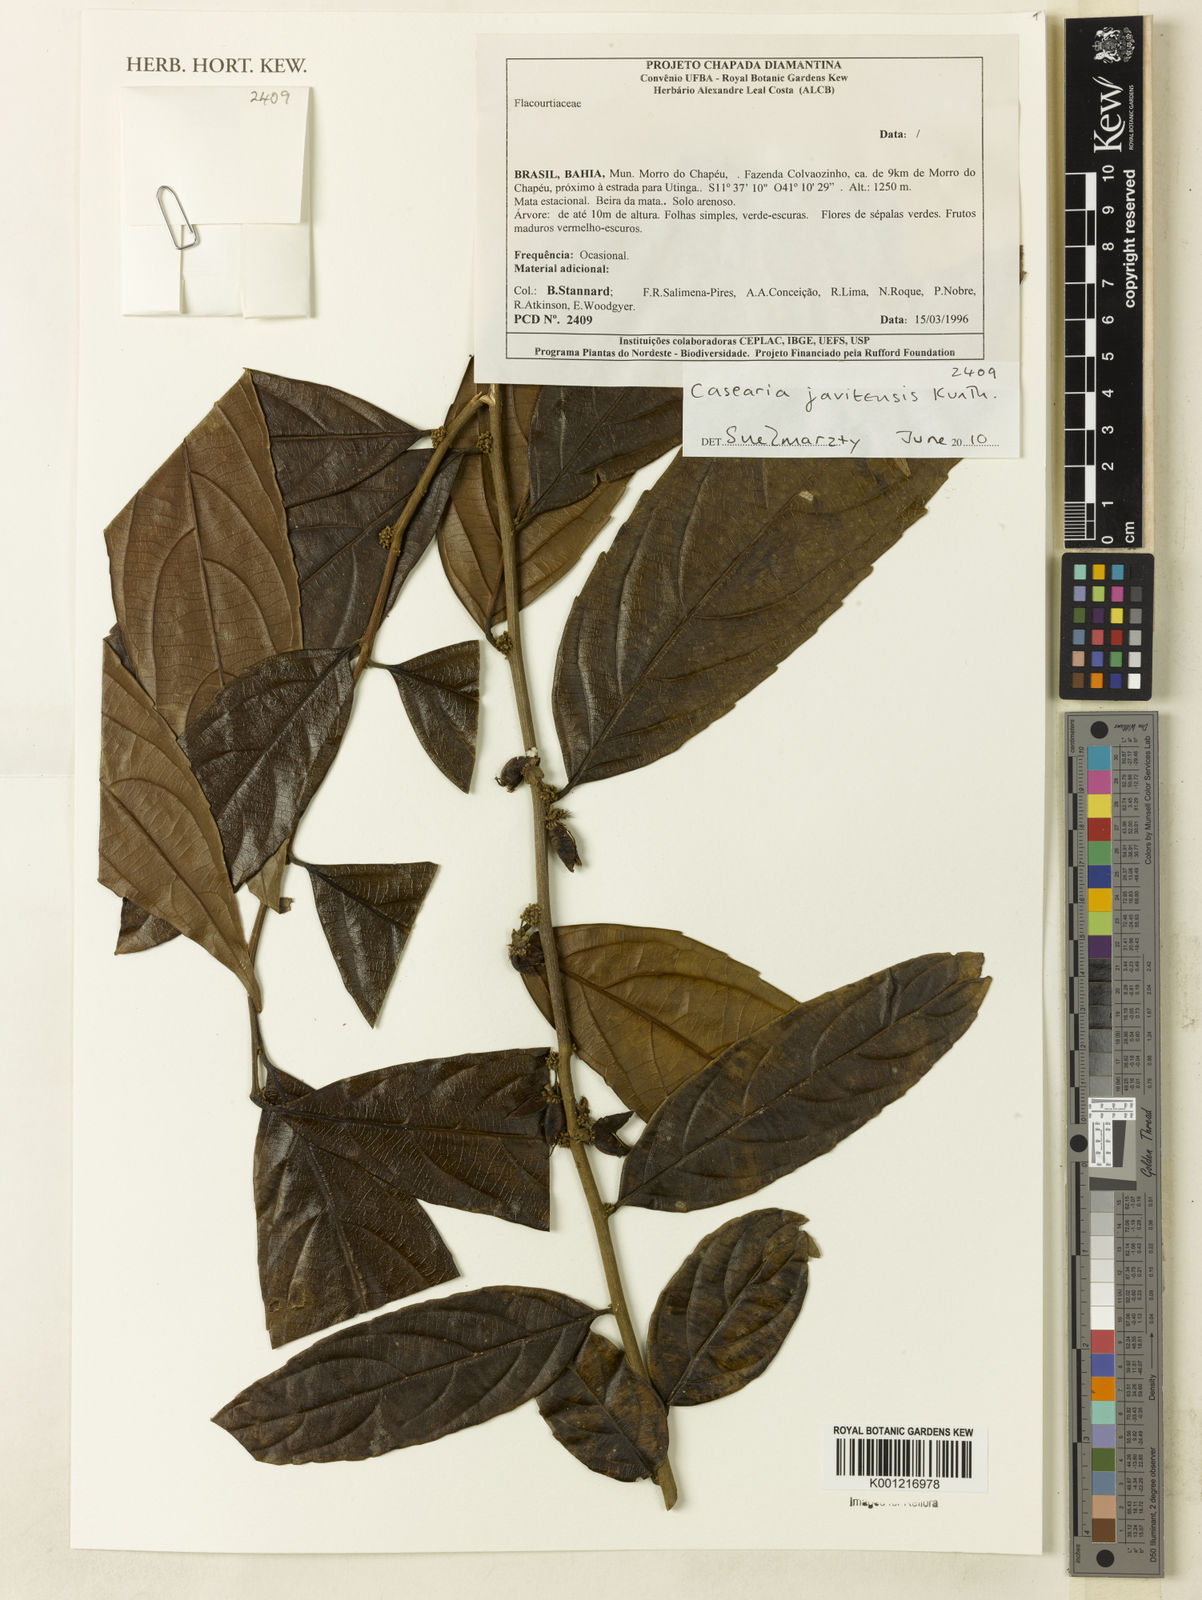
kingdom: Plantae
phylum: Tracheophyta
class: Magnoliopsida
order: Malpighiales
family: Salicaceae
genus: Piparea
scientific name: Piparea multiflora
